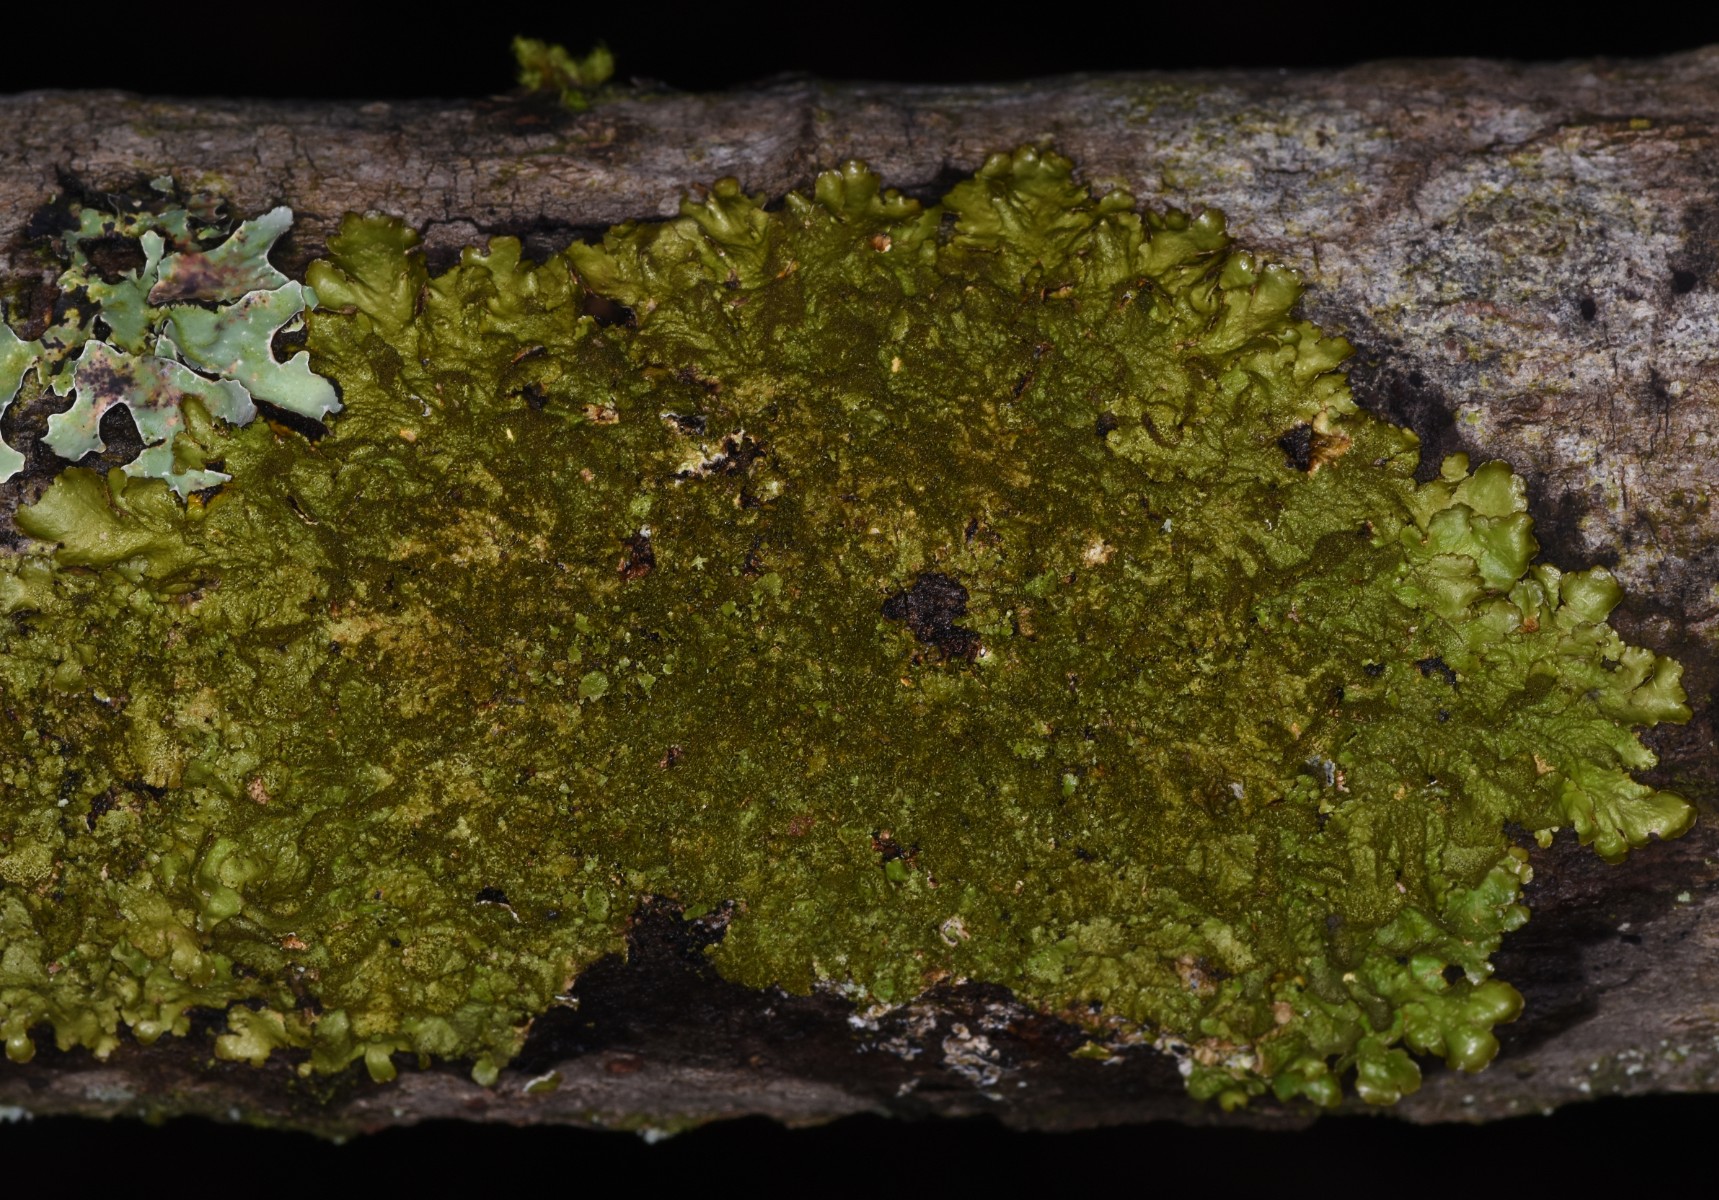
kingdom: Fungi
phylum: Ascomycota
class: Lecanoromycetes
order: Lecanorales
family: Parmeliaceae
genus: Melanelixia
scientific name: Melanelixia glabratula
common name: glinsende skållav
